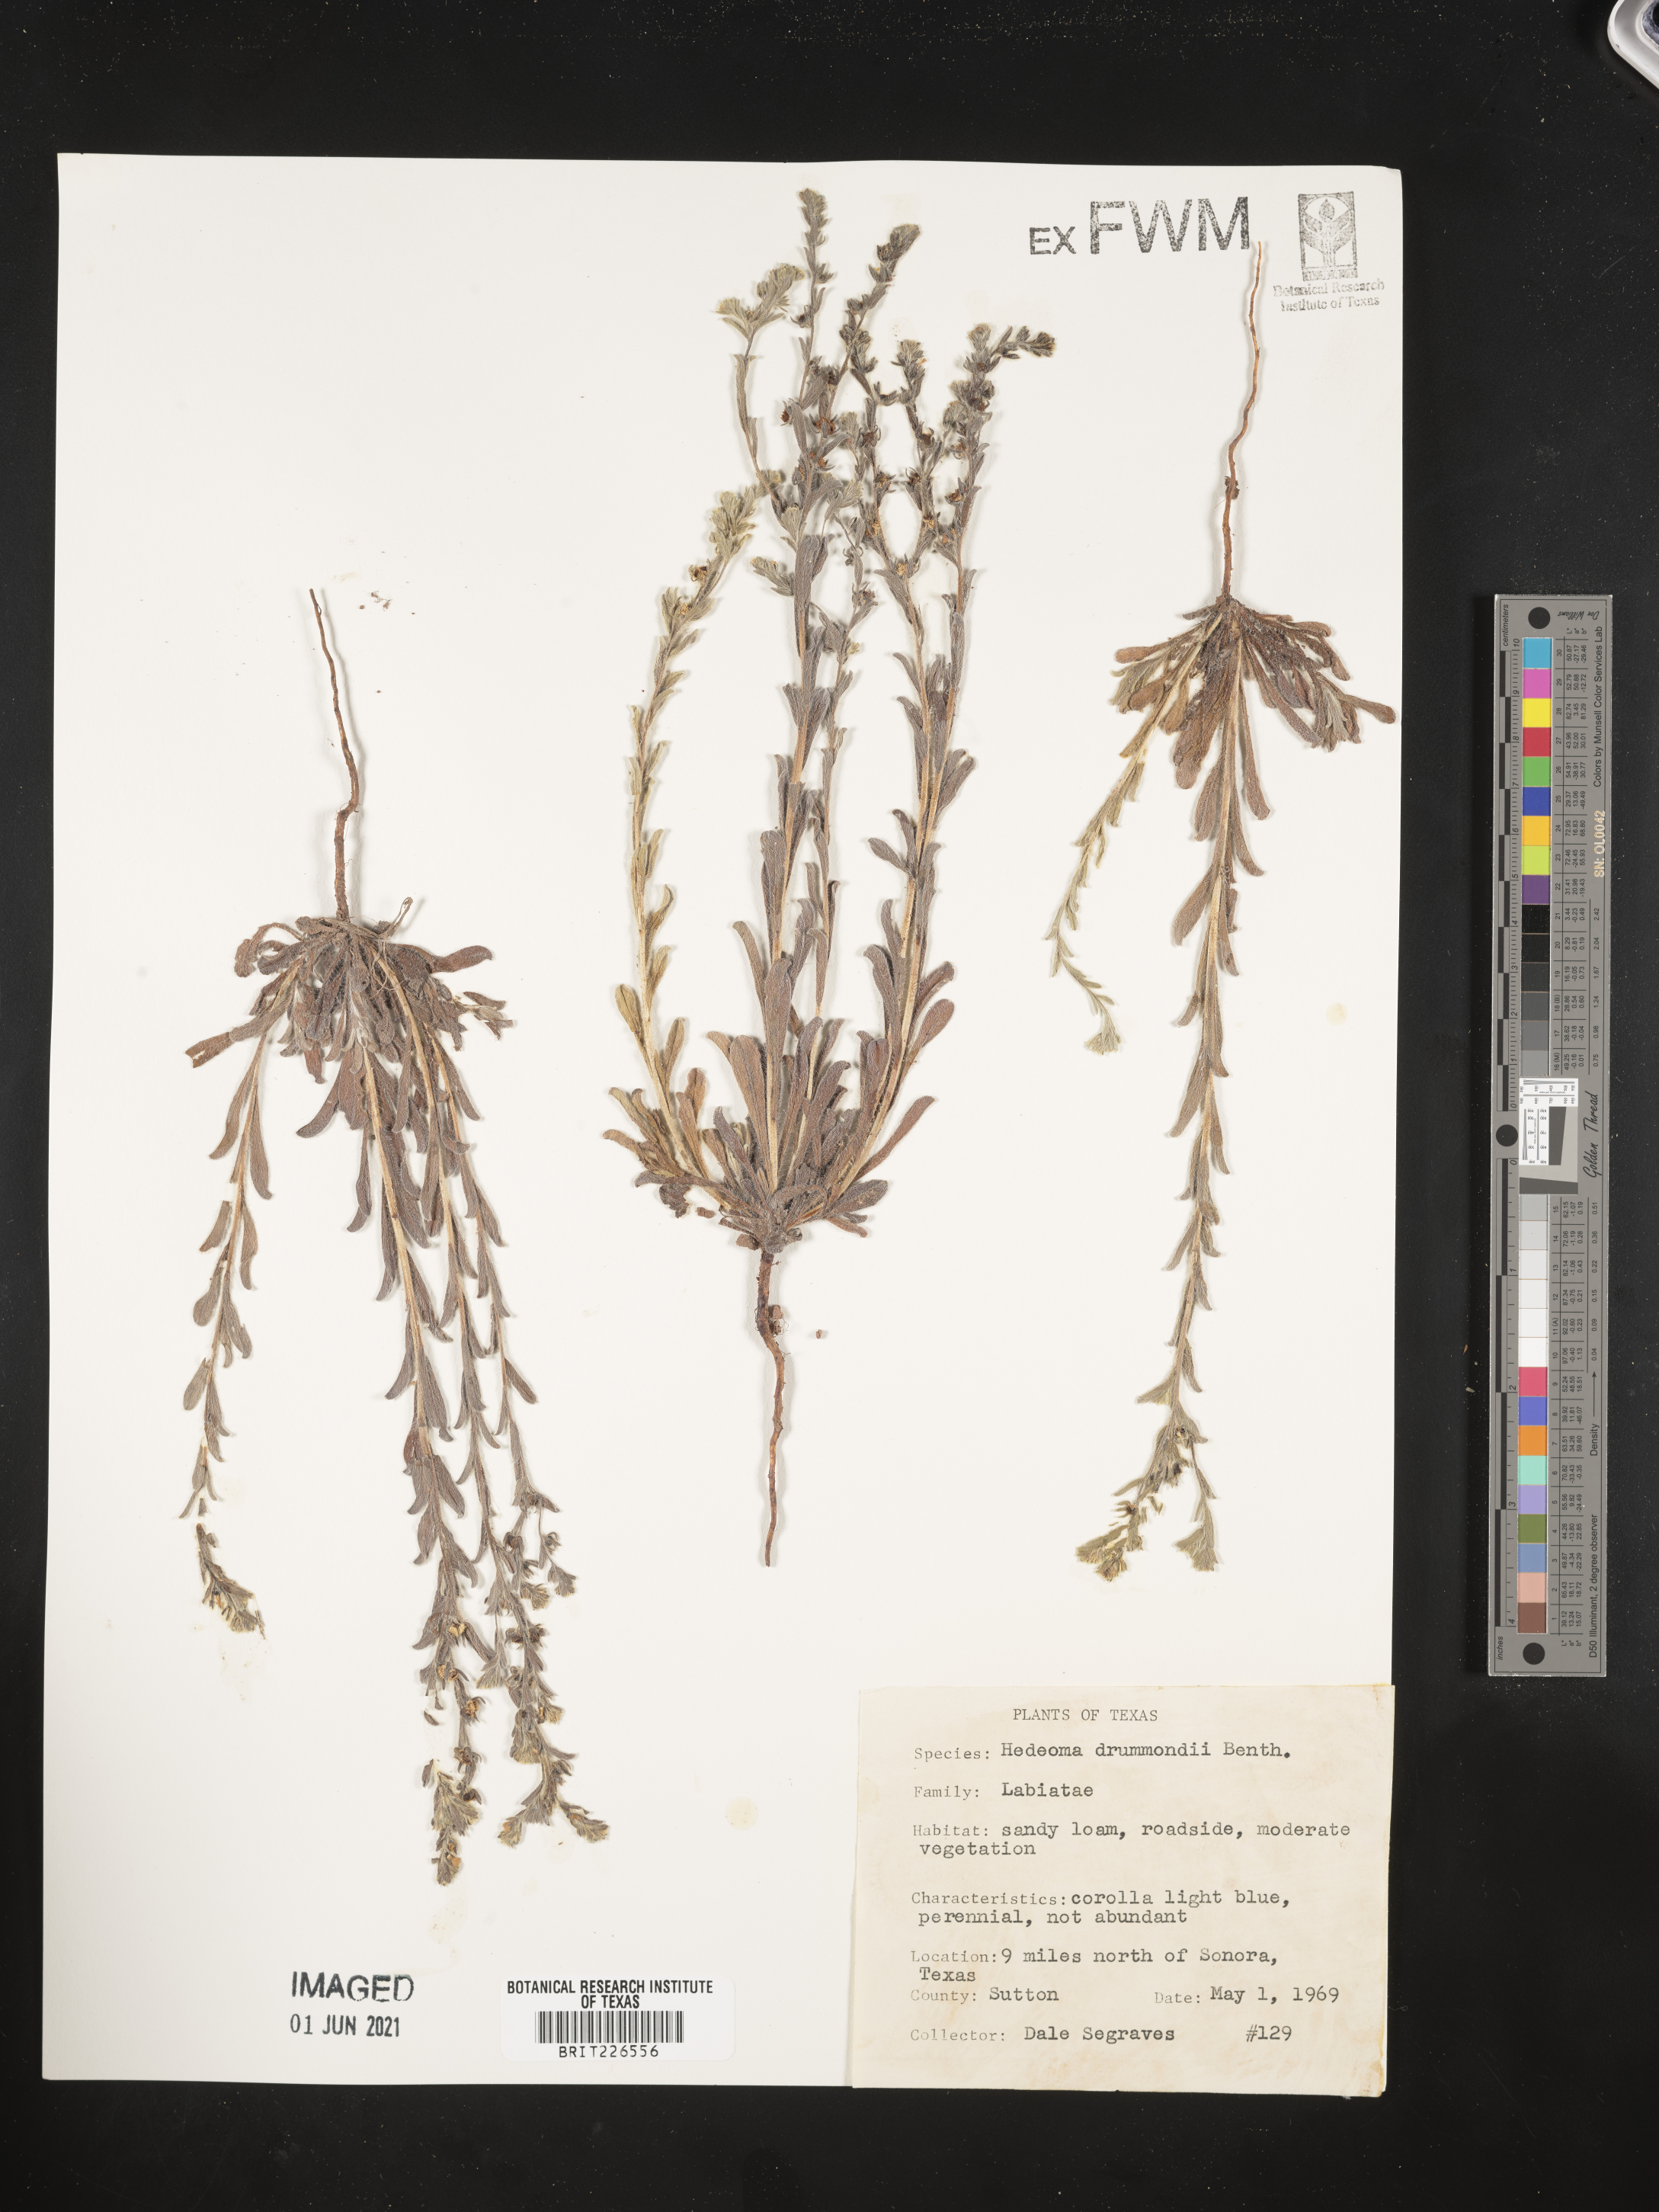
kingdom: Plantae
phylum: Tracheophyta
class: Magnoliopsida
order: Lamiales
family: Lamiaceae
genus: Hedeoma
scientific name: Hedeoma drummondii
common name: New mexico pennyroyal
